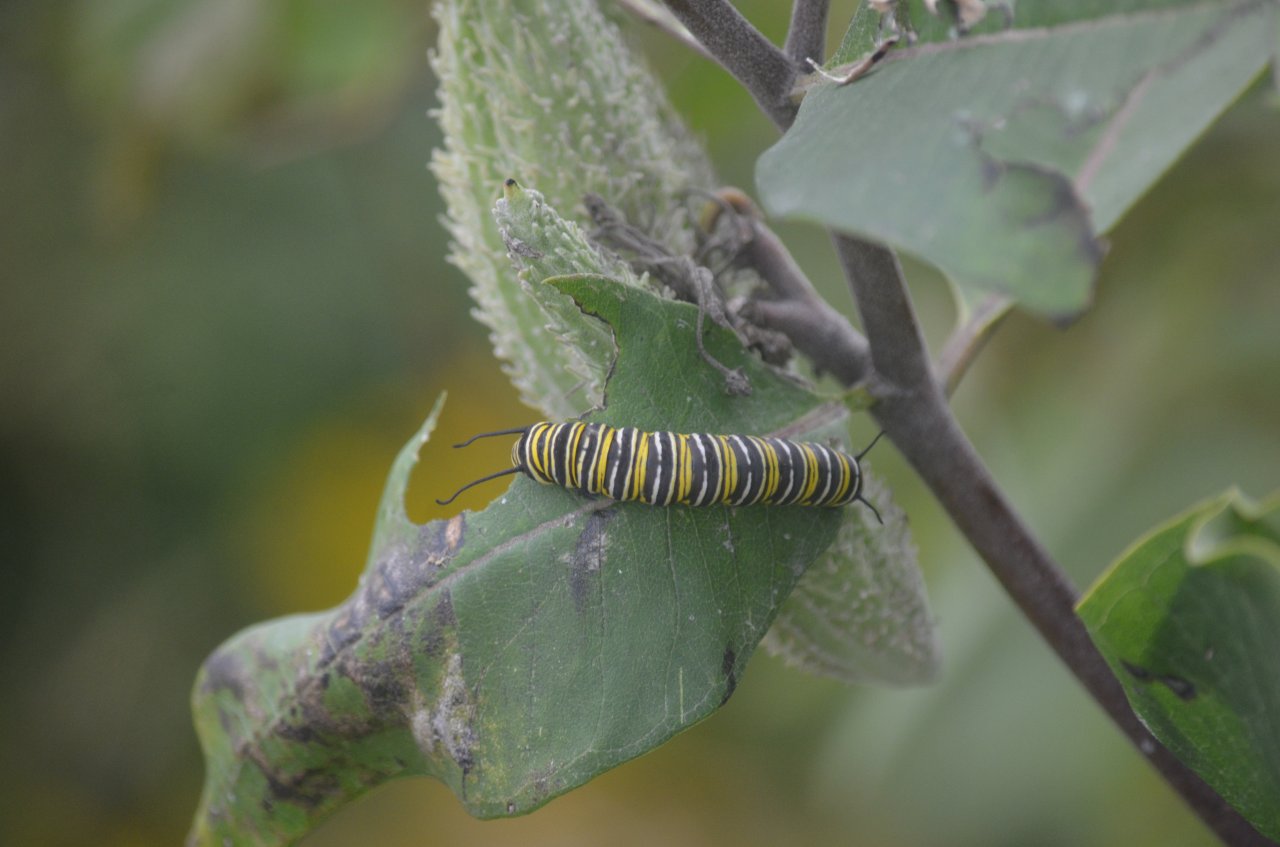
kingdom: Animalia
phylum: Arthropoda
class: Insecta
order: Lepidoptera
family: Nymphalidae
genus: Danaus
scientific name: Danaus plexippus
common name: Monarch
